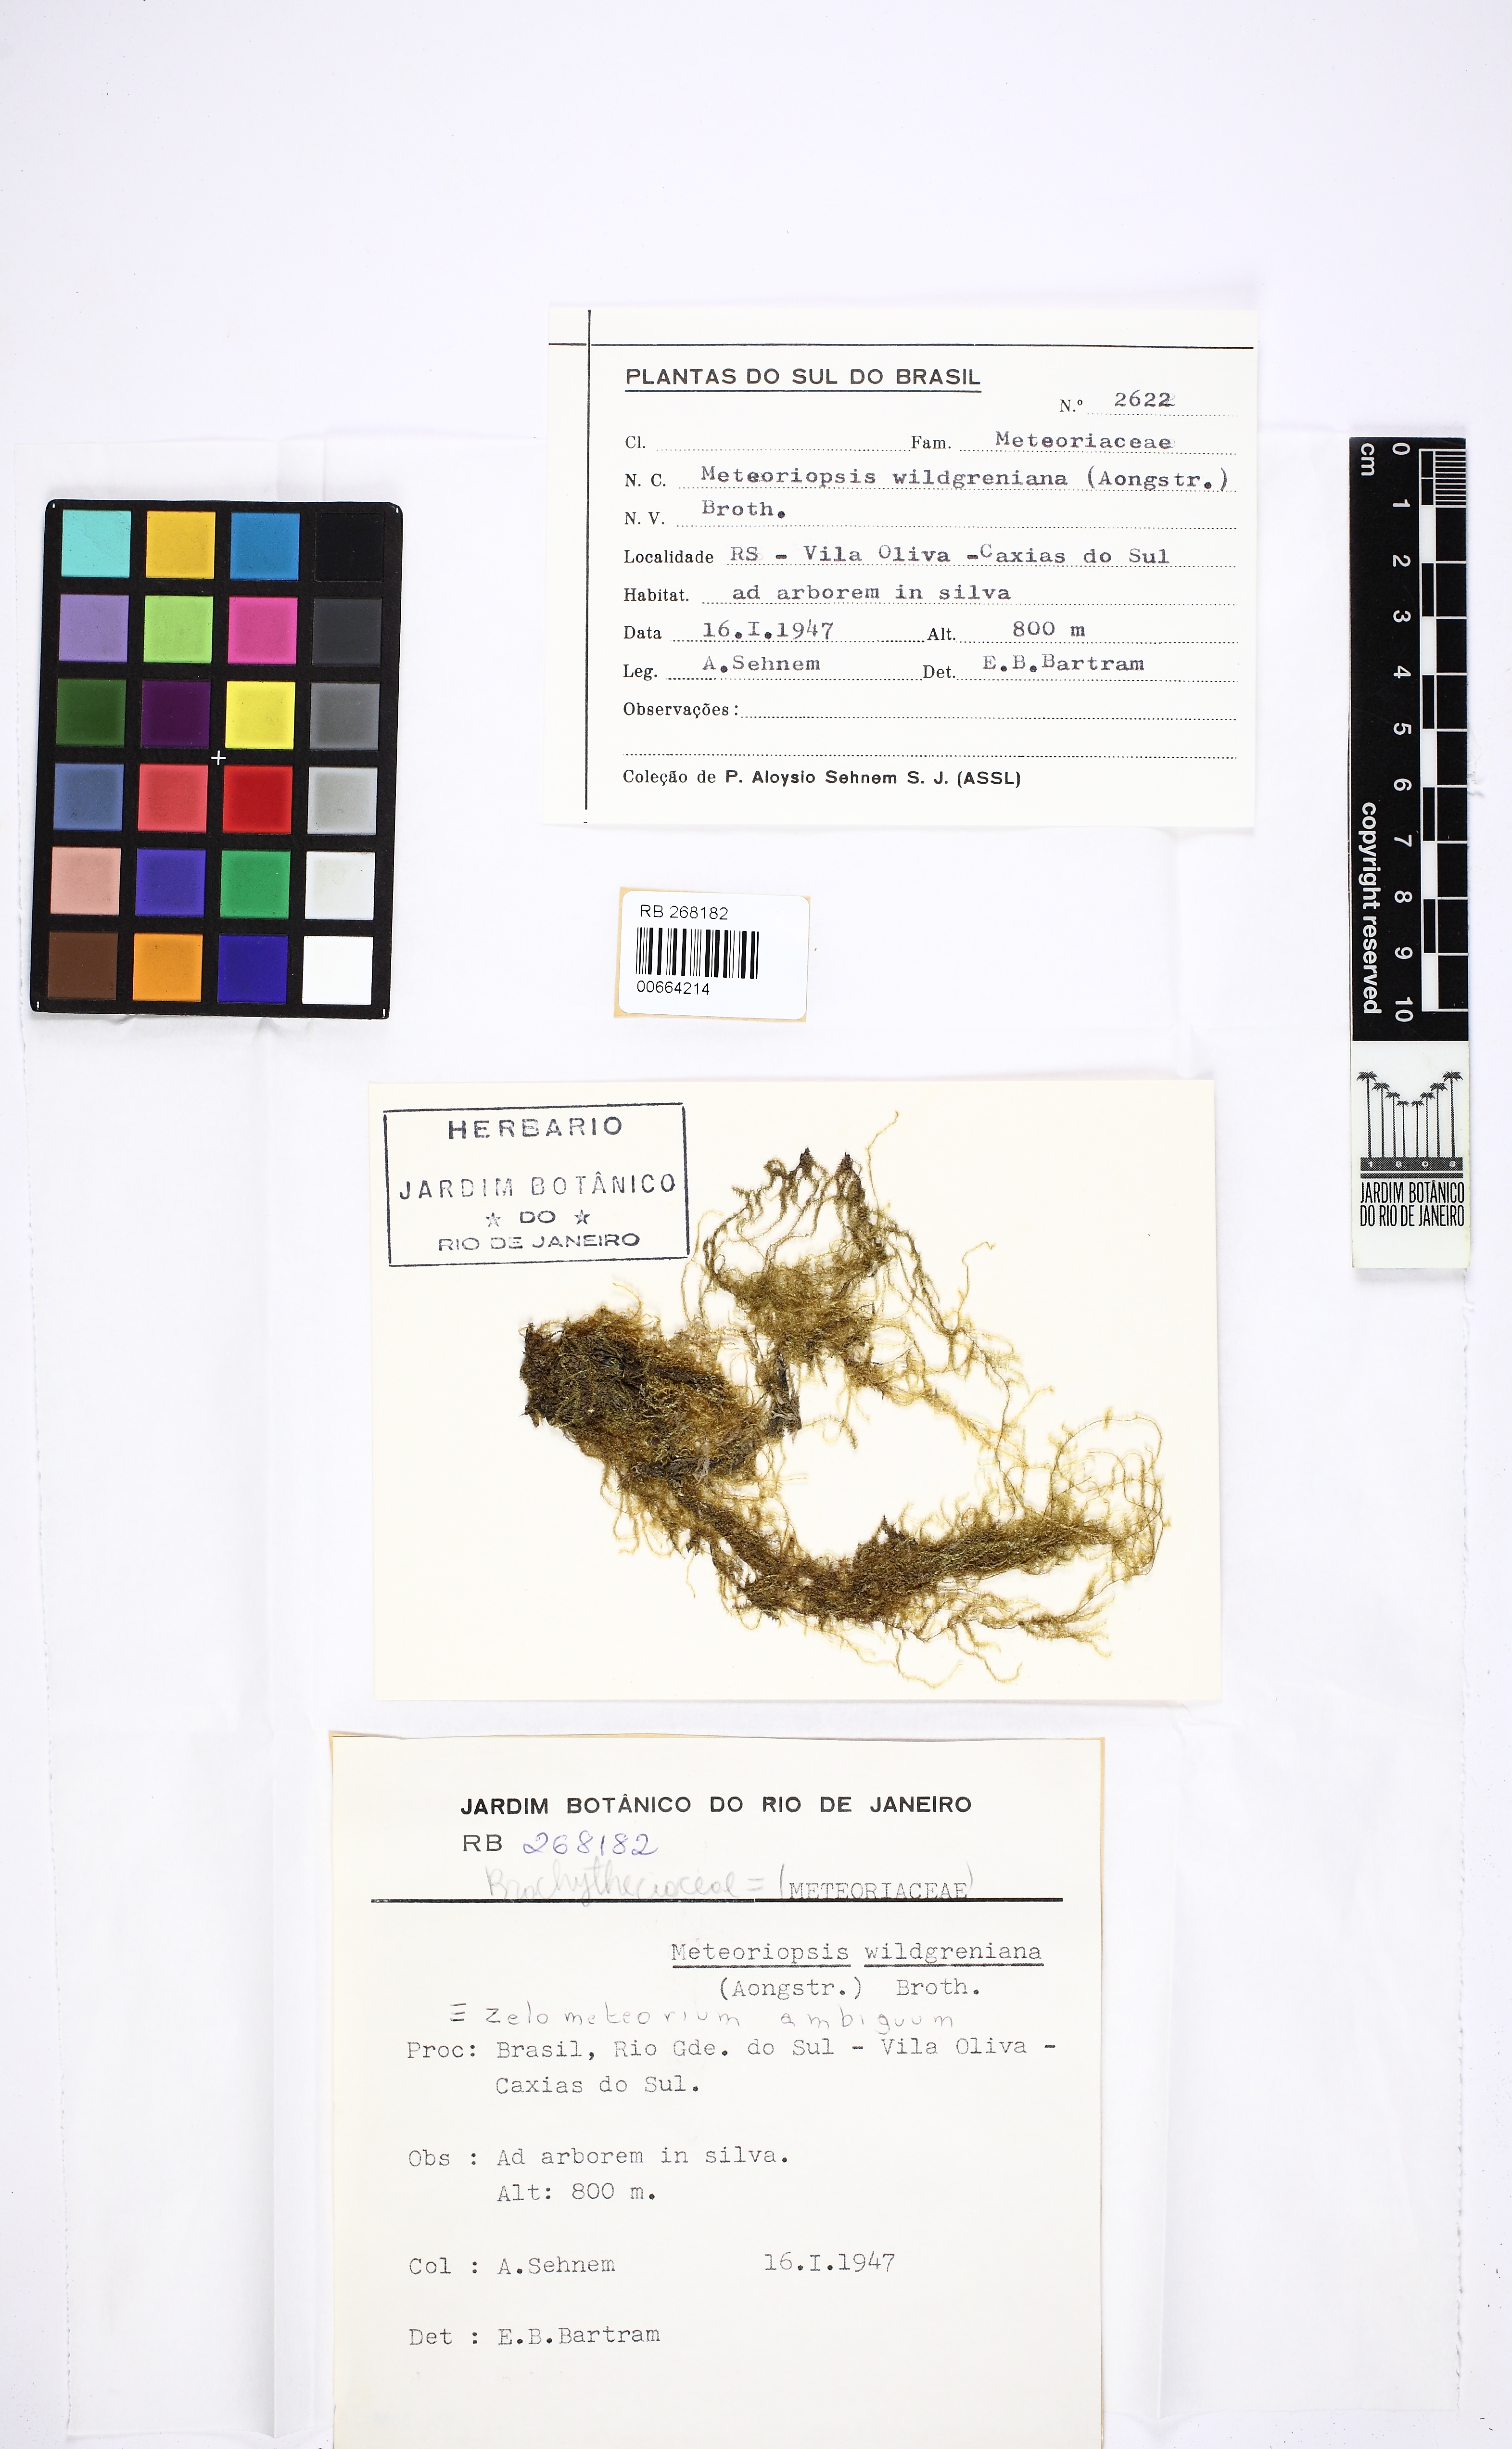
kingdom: Plantae
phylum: Bryophyta
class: Bryopsida
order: Hypnales
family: Brachytheciaceae
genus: Zelometeorium
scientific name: Zelometeorium ambiguum
